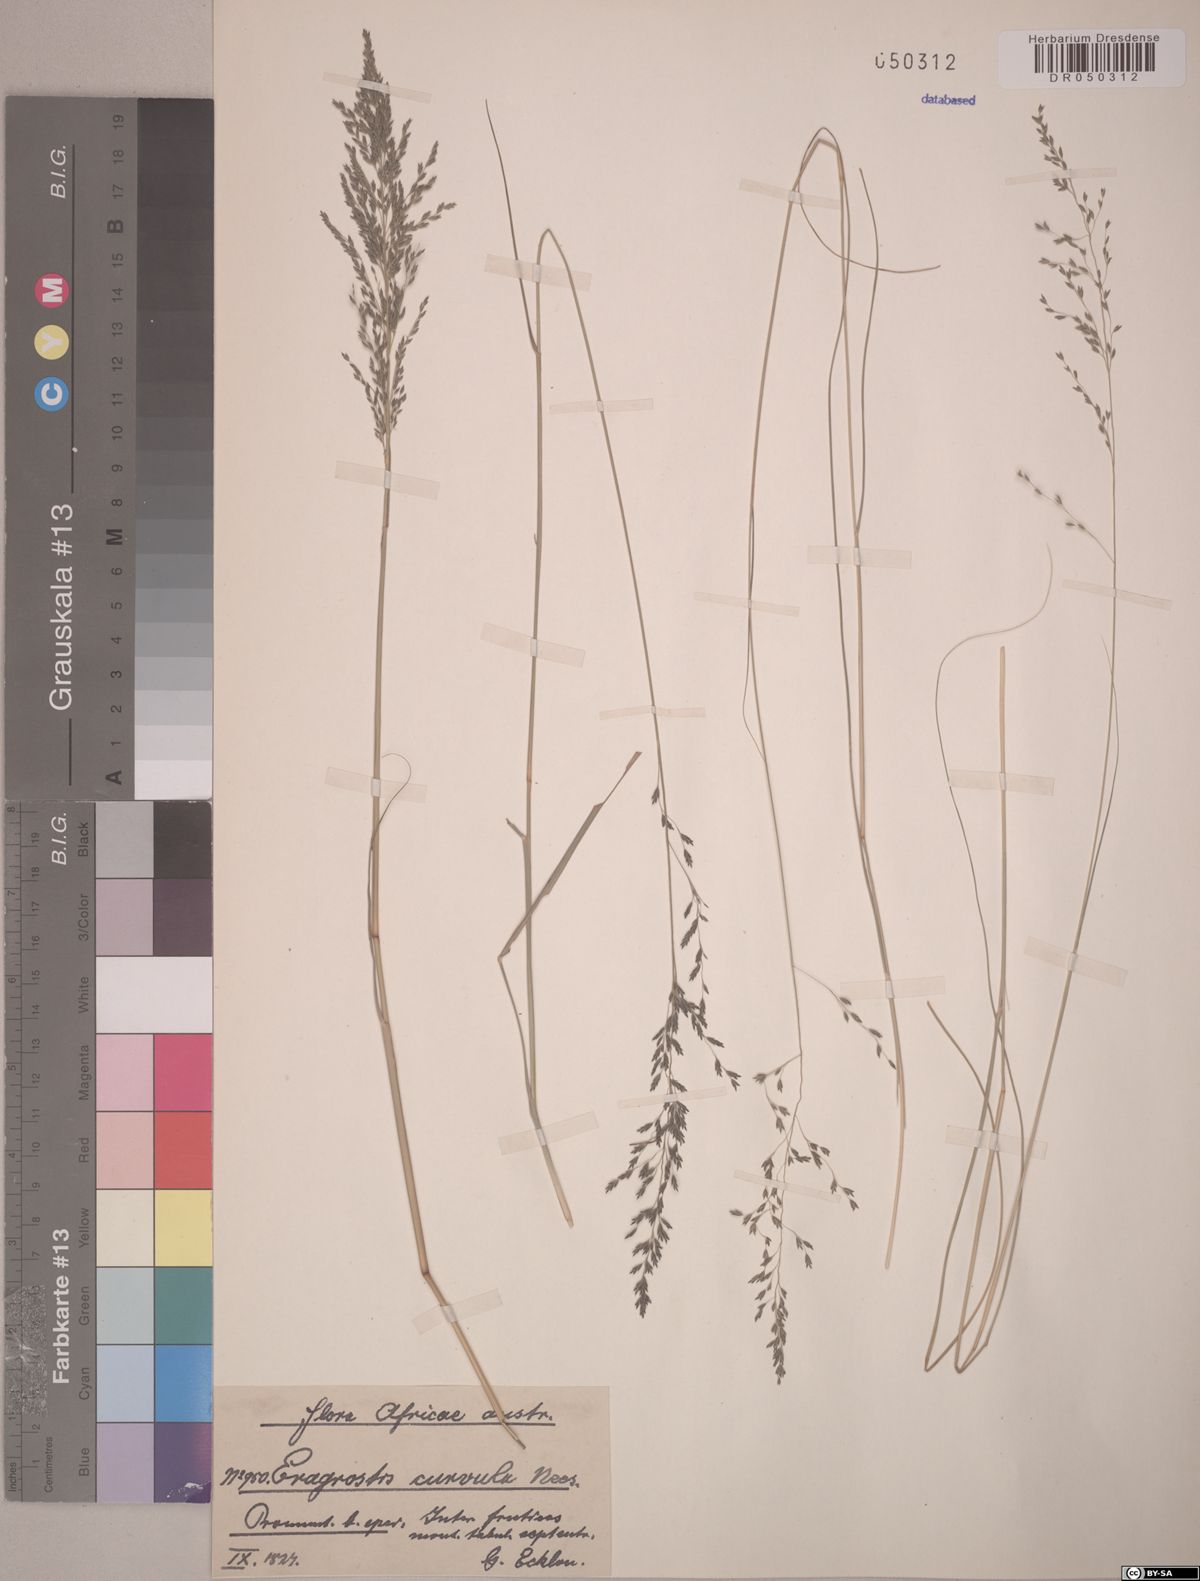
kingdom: Plantae
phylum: Tracheophyta
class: Liliopsida
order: Poales
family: Poaceae
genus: Eragrostis
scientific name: Eragrostis curvula
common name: African love-grass
